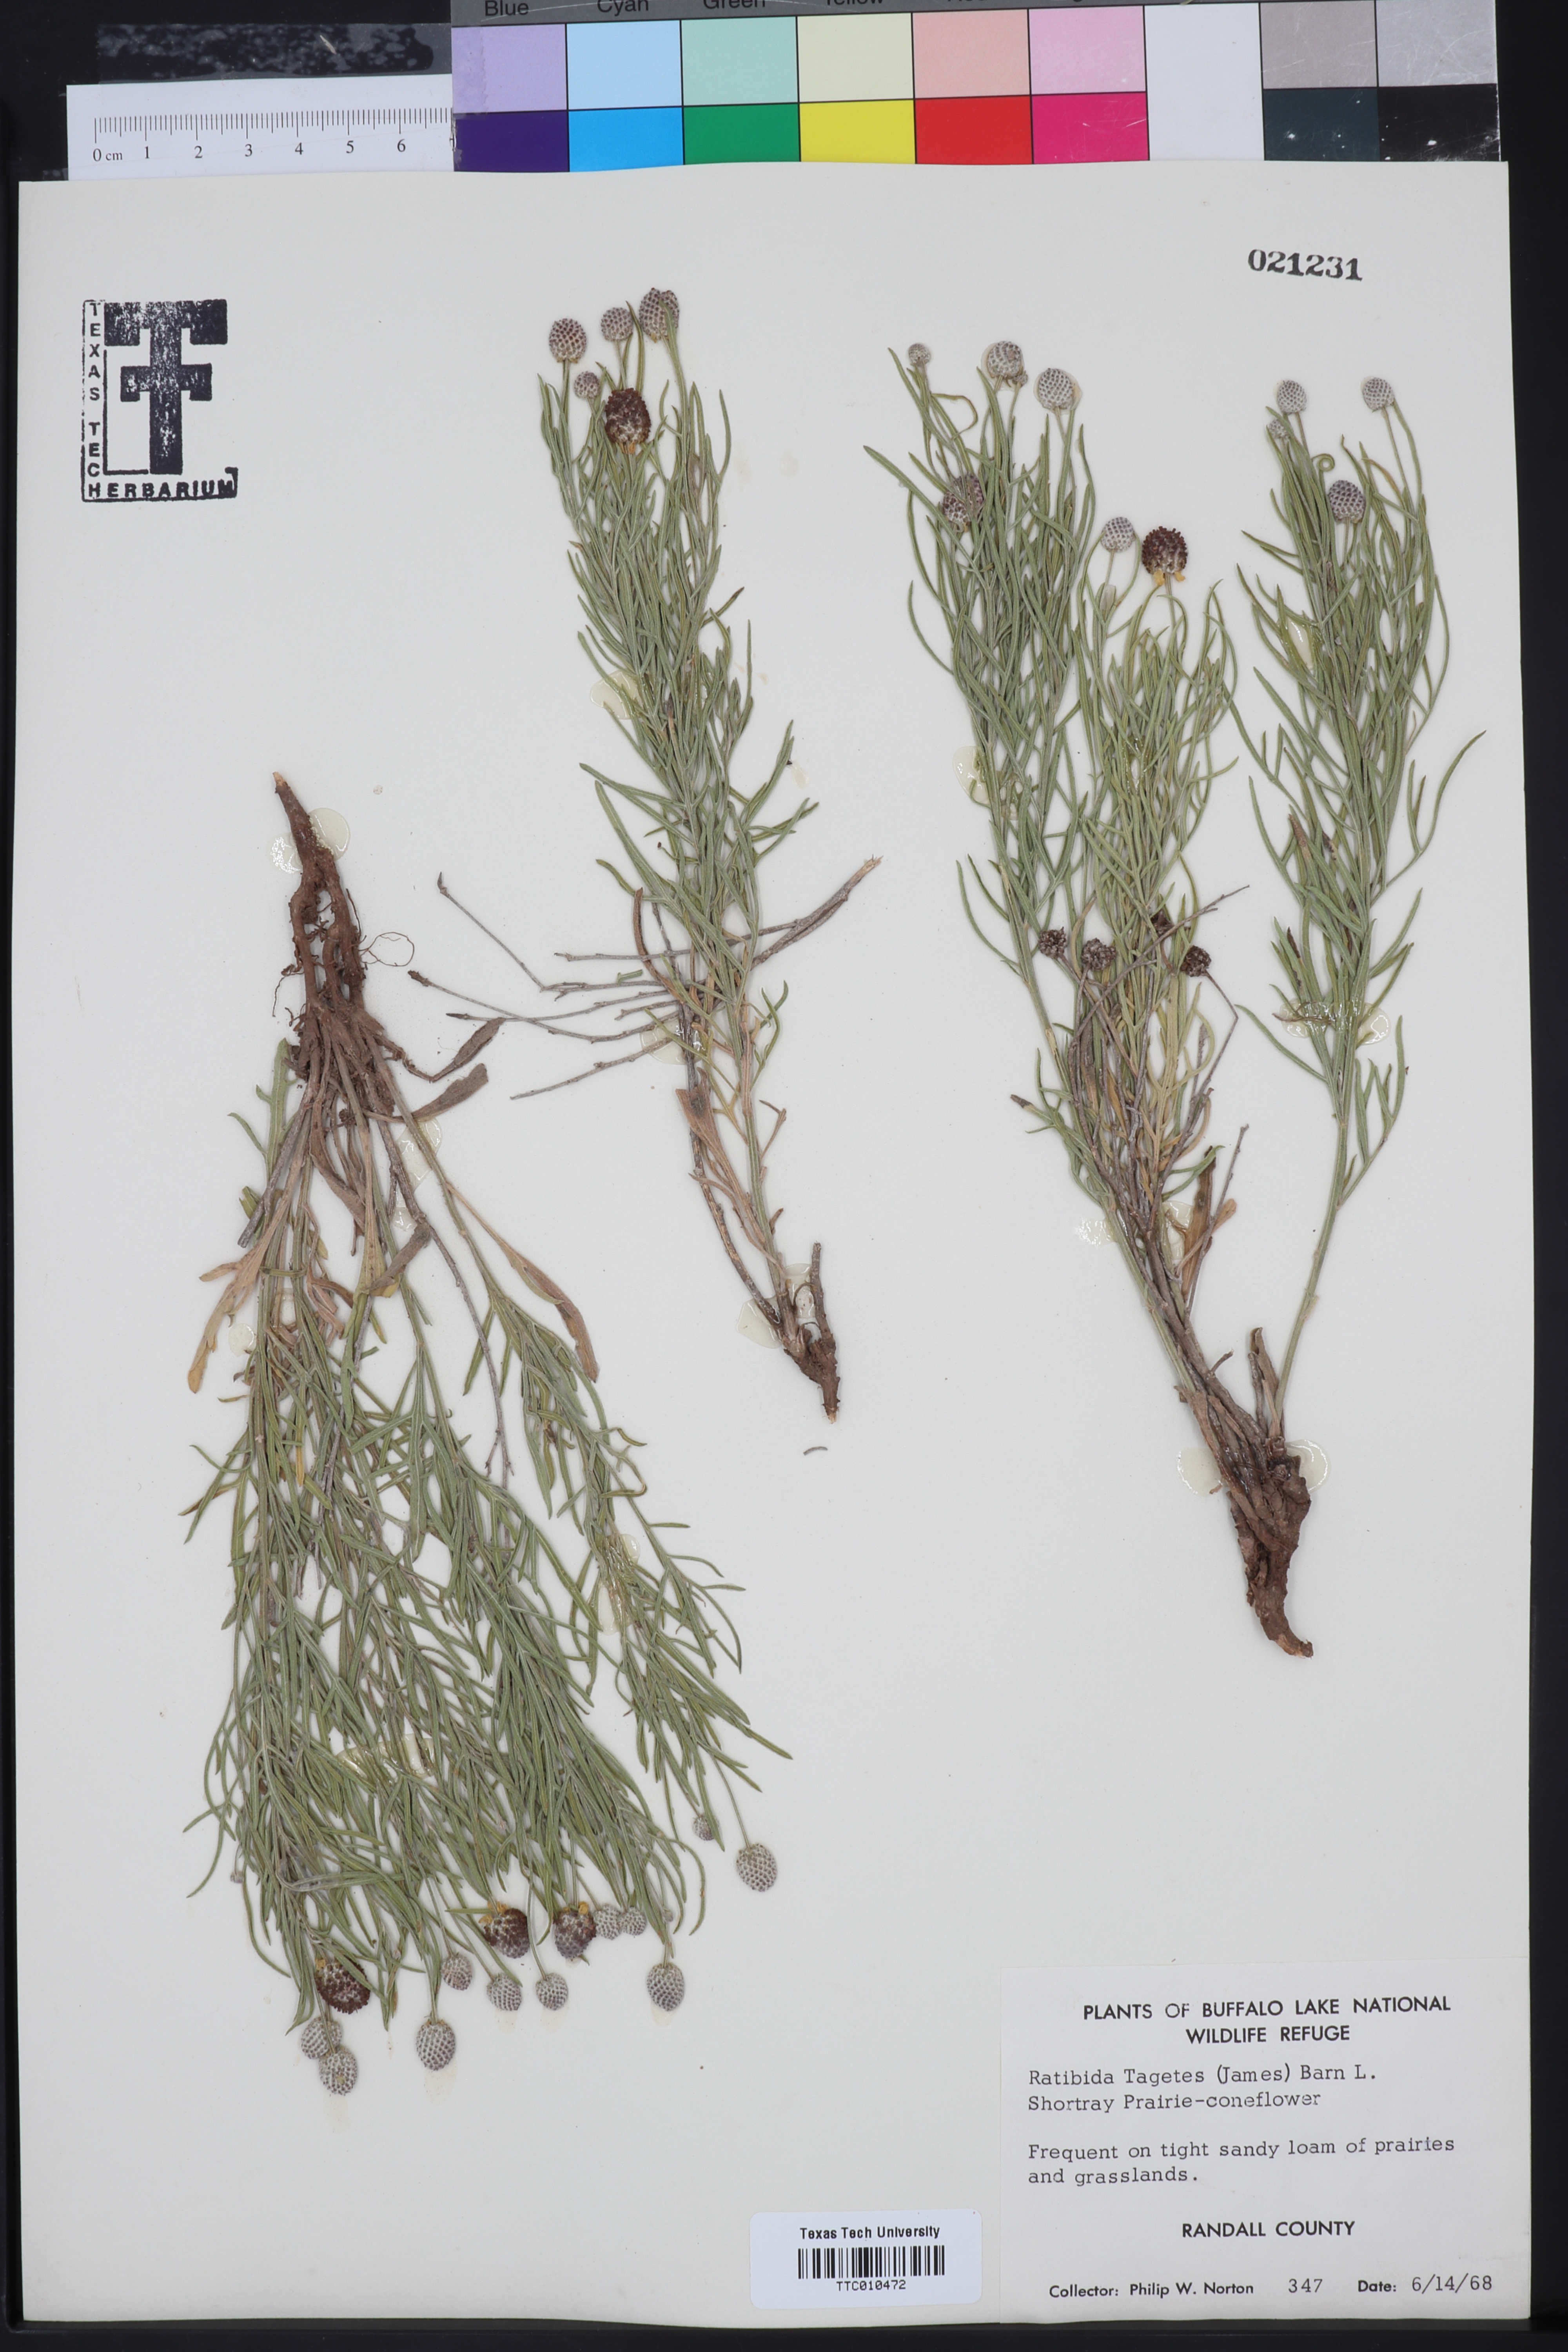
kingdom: Plantae
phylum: Tracheophyta
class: Magnoliopsida
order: Asterales
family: Asteraceae
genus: Ratibida
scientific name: Ratibida tagetes
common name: Green mexican-hat
